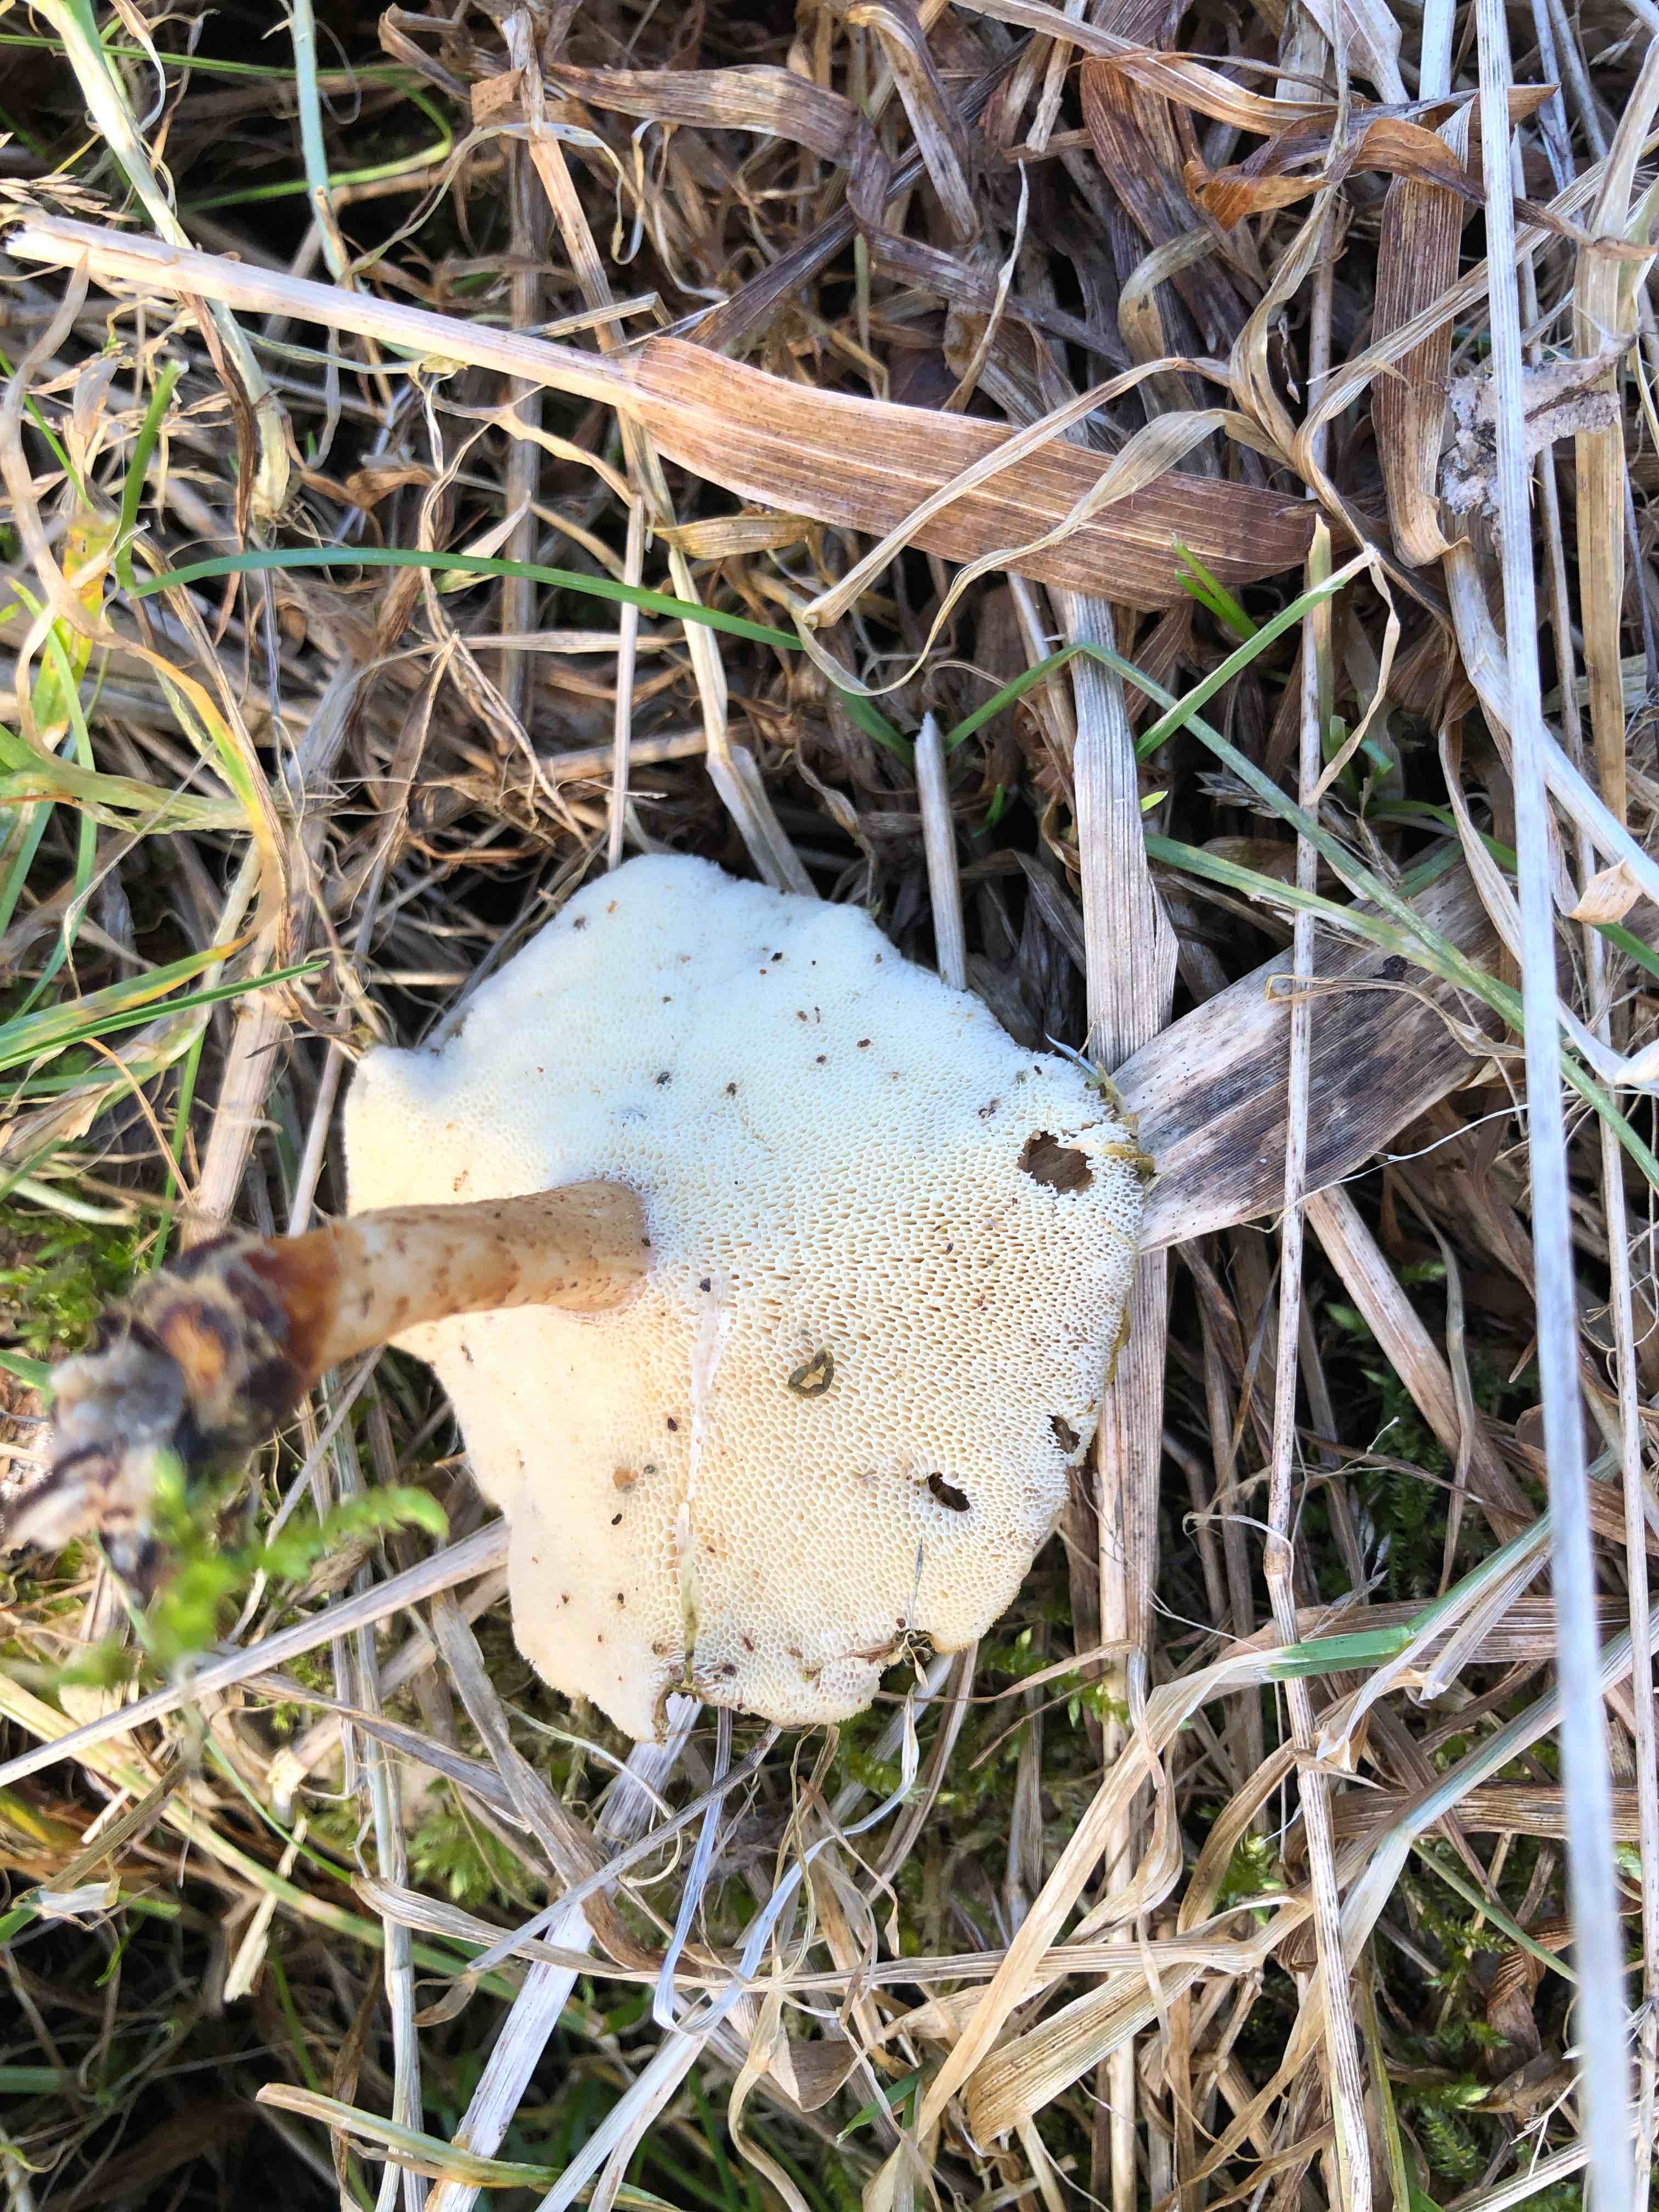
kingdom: Fungi
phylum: Basidiomycota
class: Agaricomycetes
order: Polyporales
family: Polyporaceae
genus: Lentinus
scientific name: Lentinus brumalis
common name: vinter-stilkporesvamp
